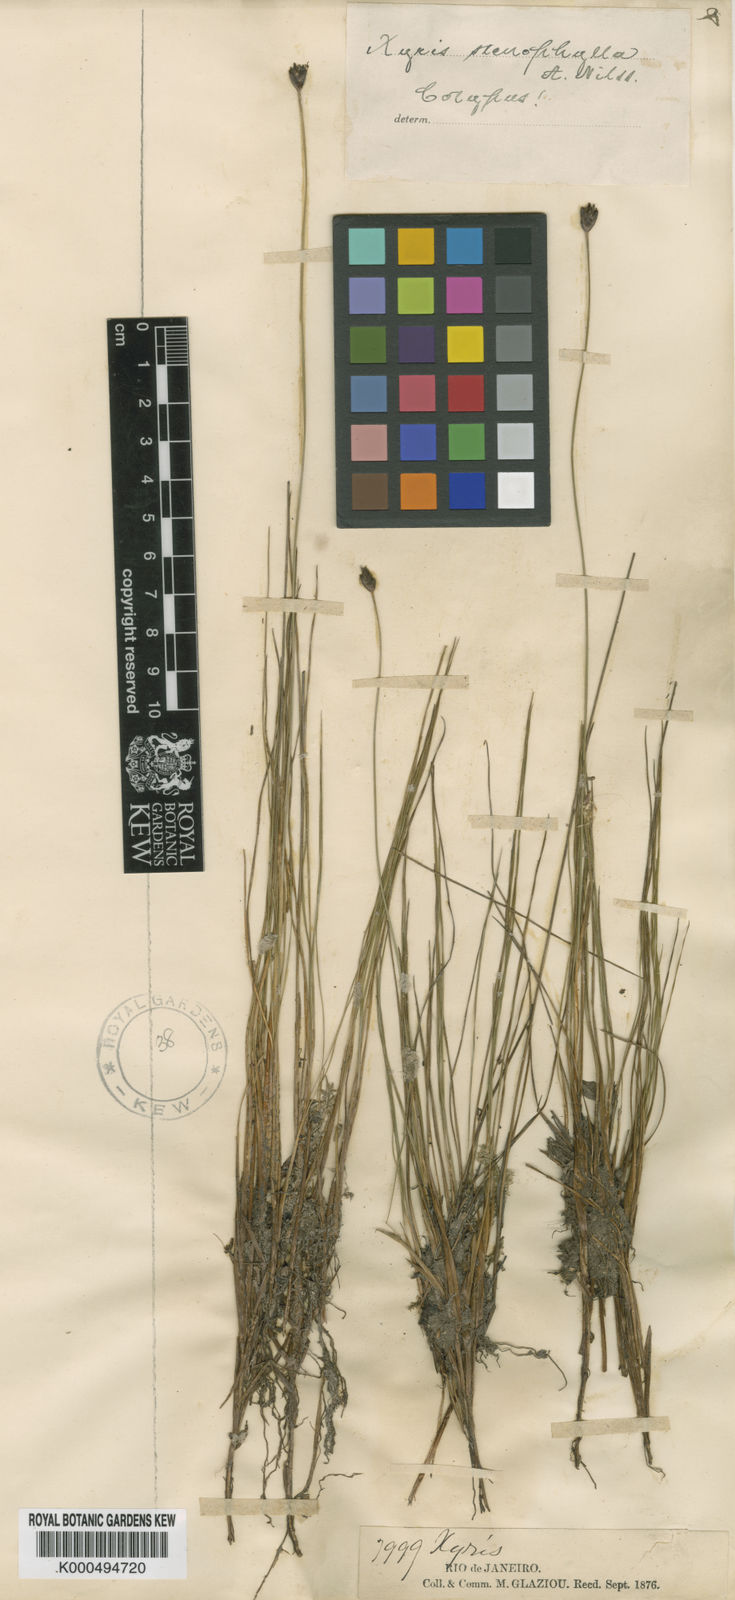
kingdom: Plantae
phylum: Tracheophyta
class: Liliopsida
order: Poales
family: Xyridaceae
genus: Xyris
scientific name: Xyris stenophylla
